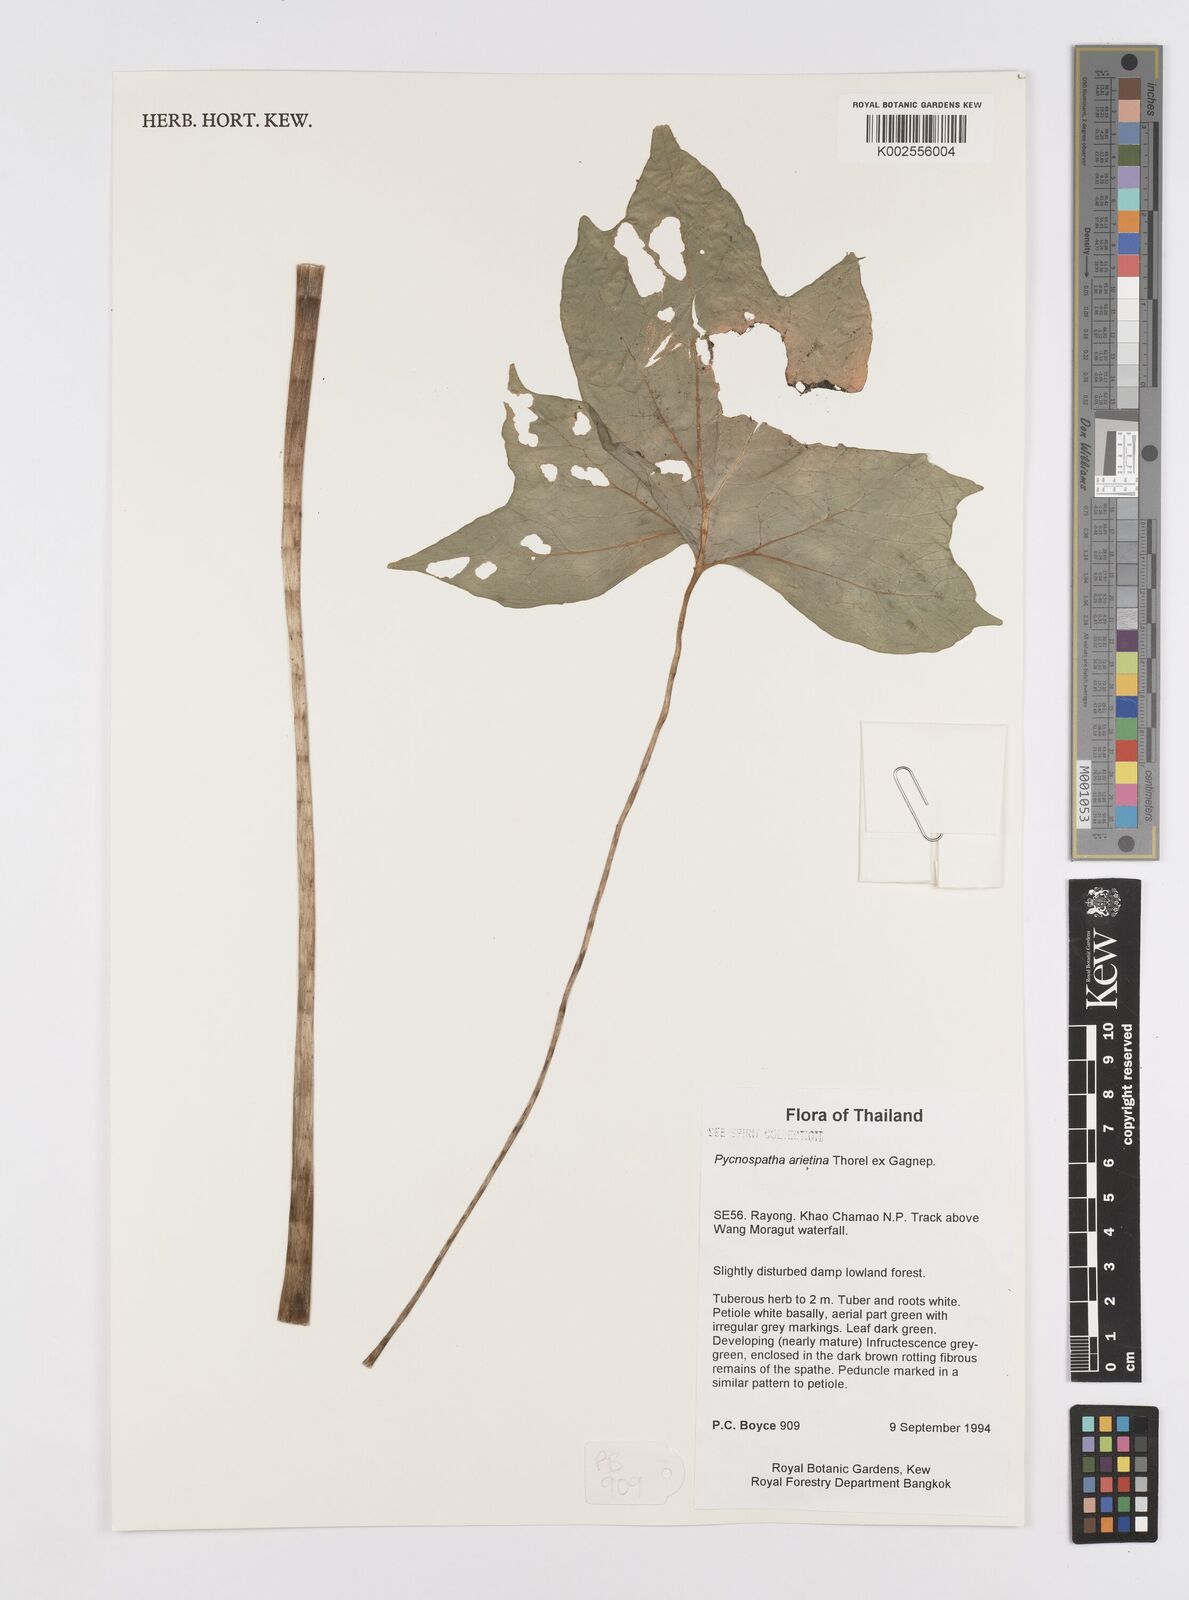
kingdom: Plantae
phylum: Tracheophyta
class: Liliopsida
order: Alismatales
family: Araceae
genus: Pycnospatha
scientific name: Pycnospatha arietina
